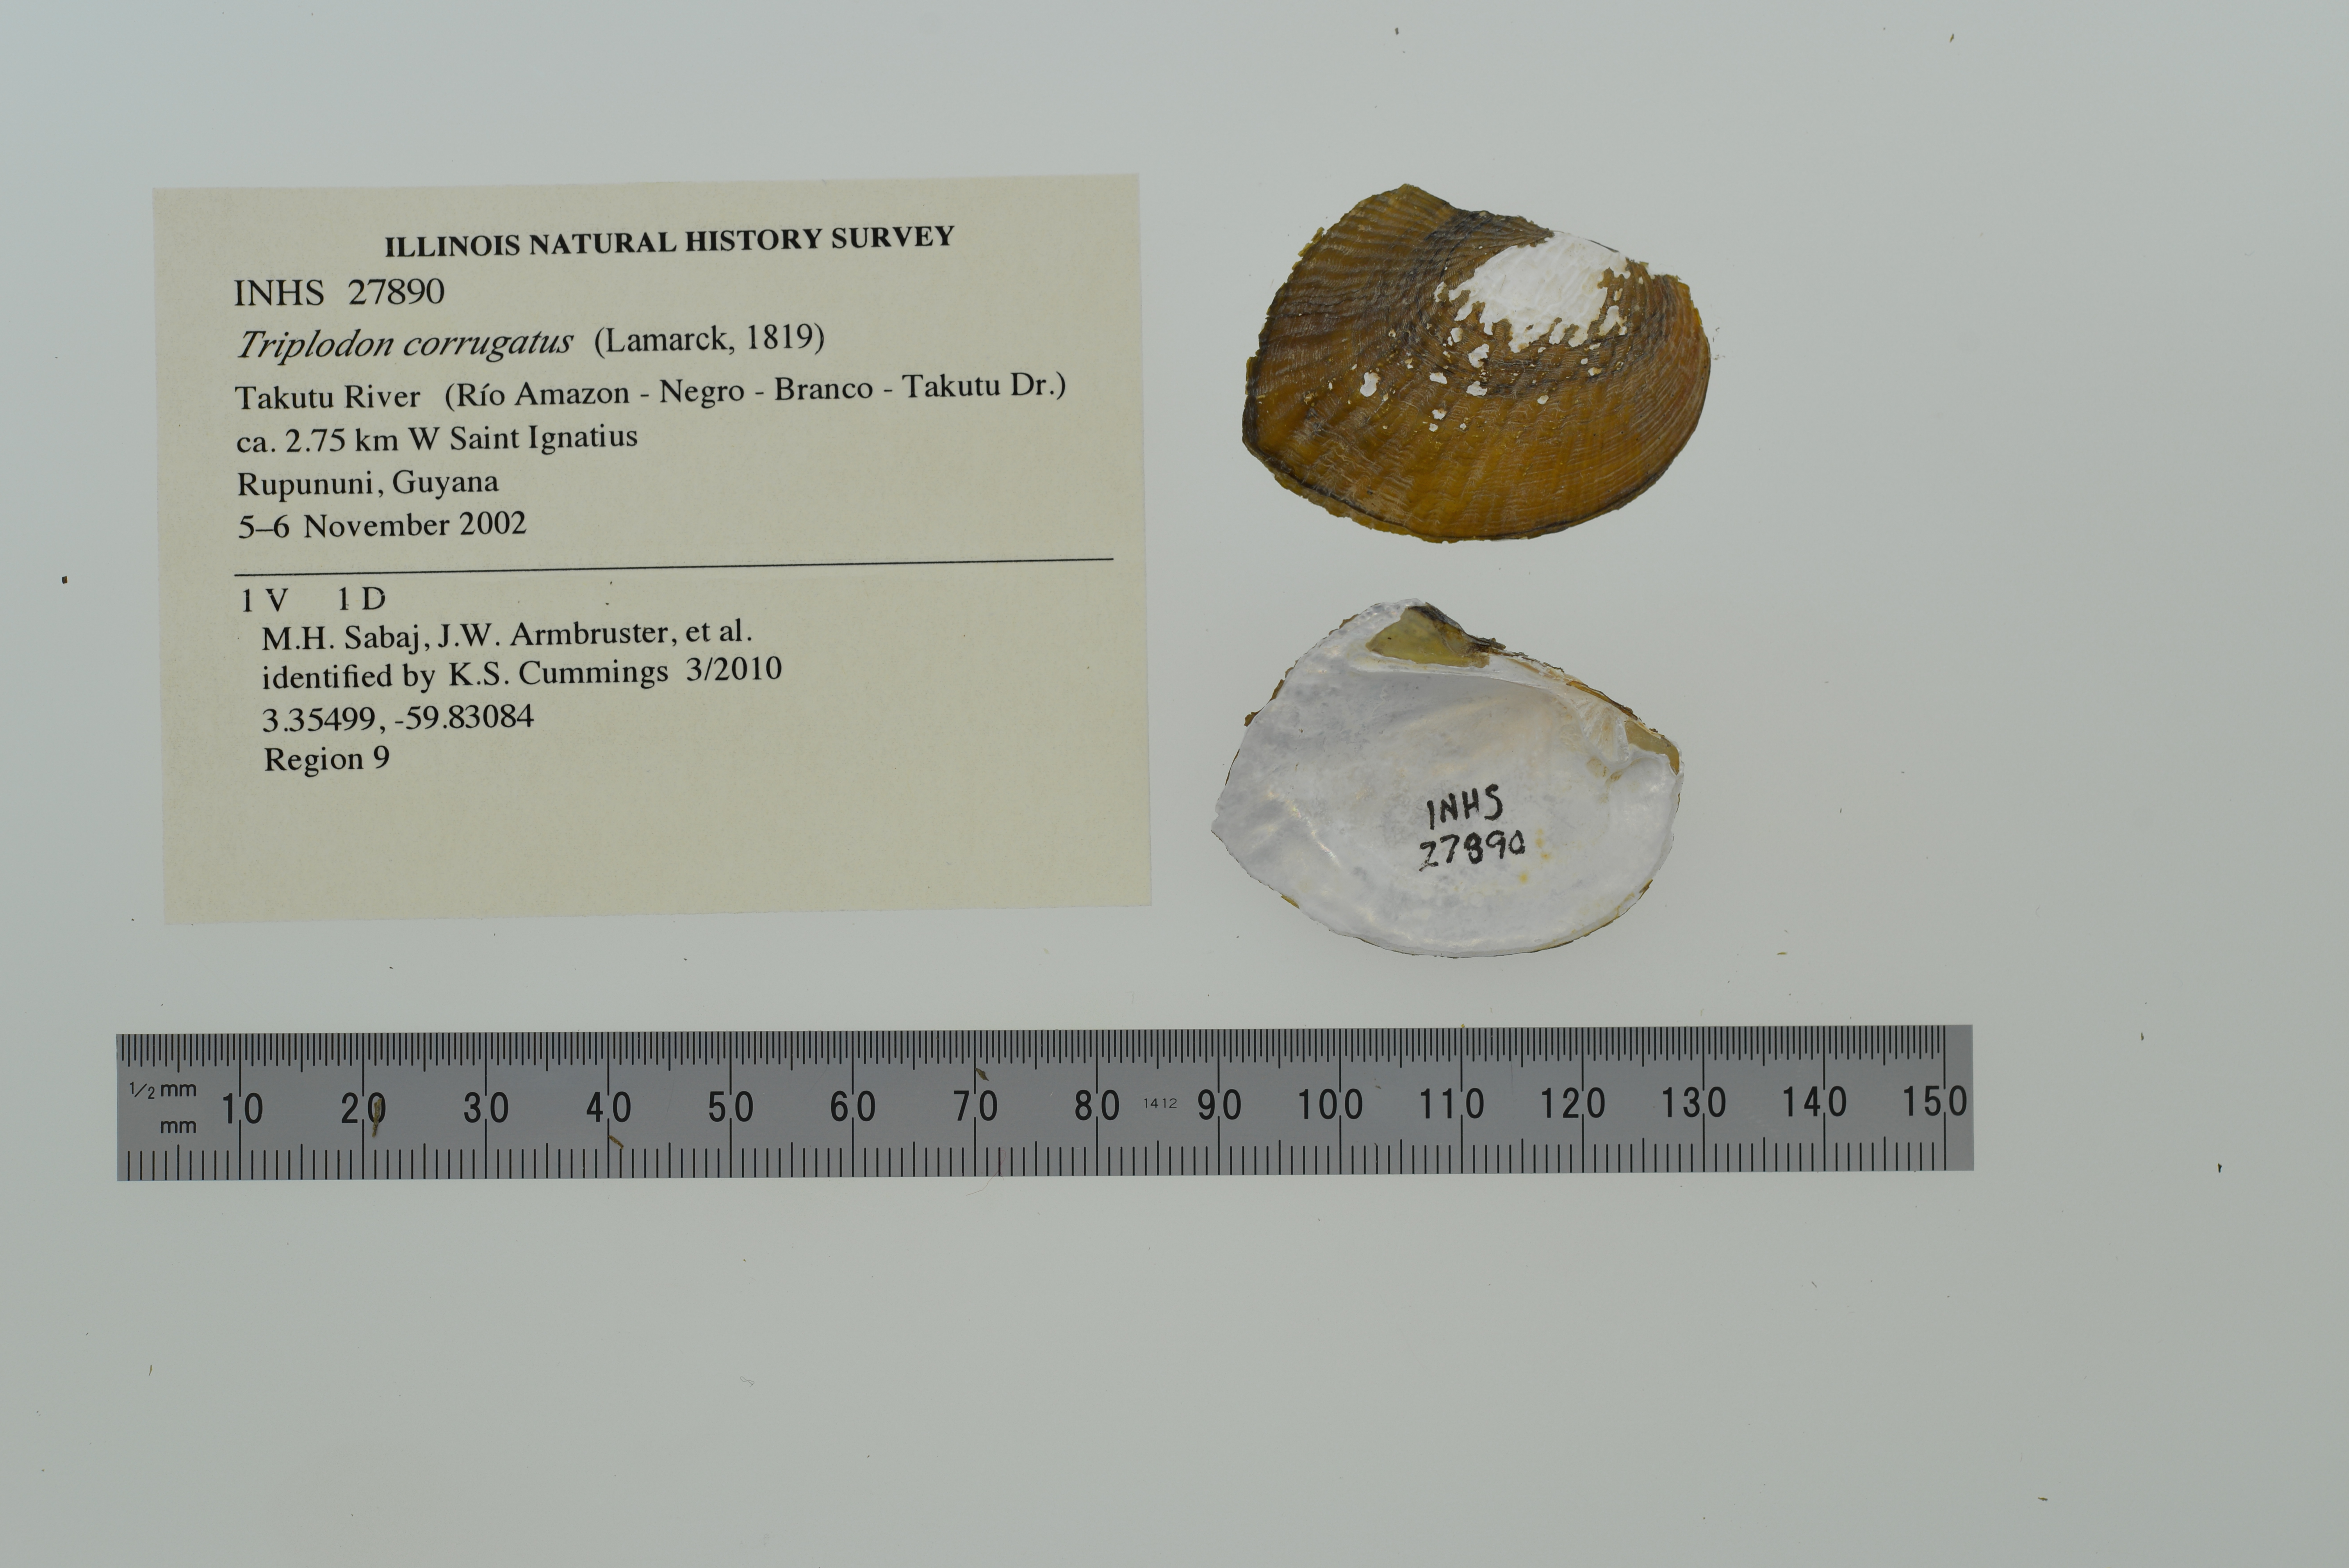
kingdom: Animalia
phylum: Mollusca
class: Bivalvia
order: Unionida
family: Hyriidae
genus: Triplodon
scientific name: Triplodon corrugatus
